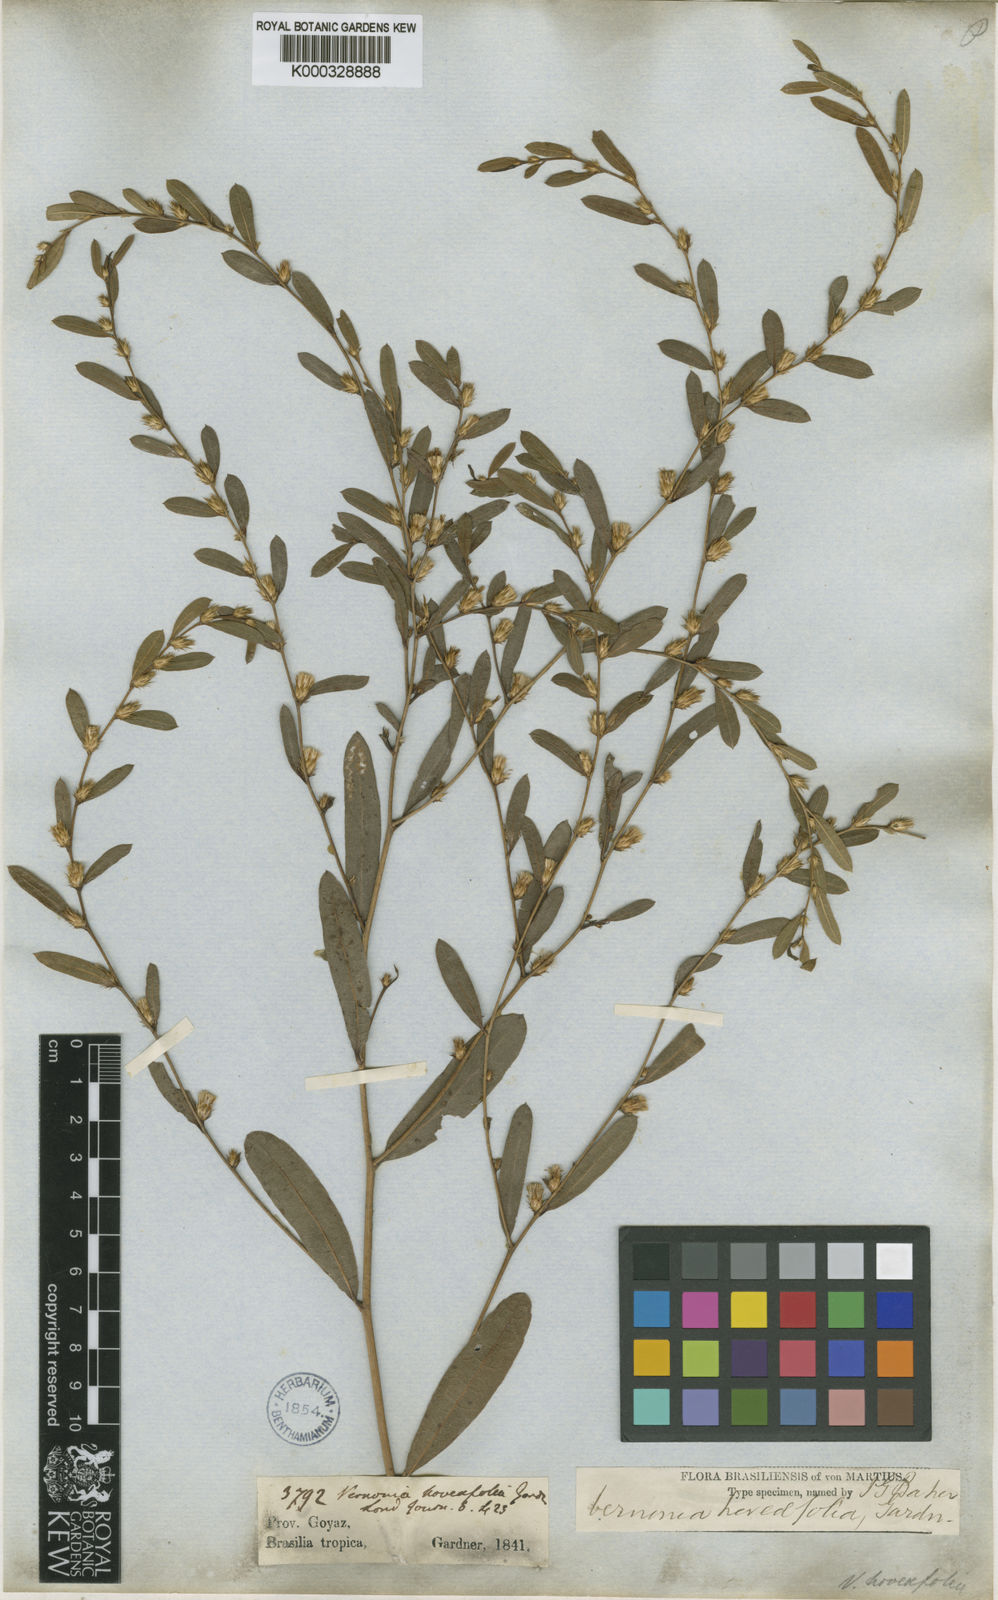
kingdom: Plantae
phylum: Tracheophyta
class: Magnoliopsida
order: Asterales
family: Asteraceae
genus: Lessingianthus
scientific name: Lessingianthus hoveifolius
